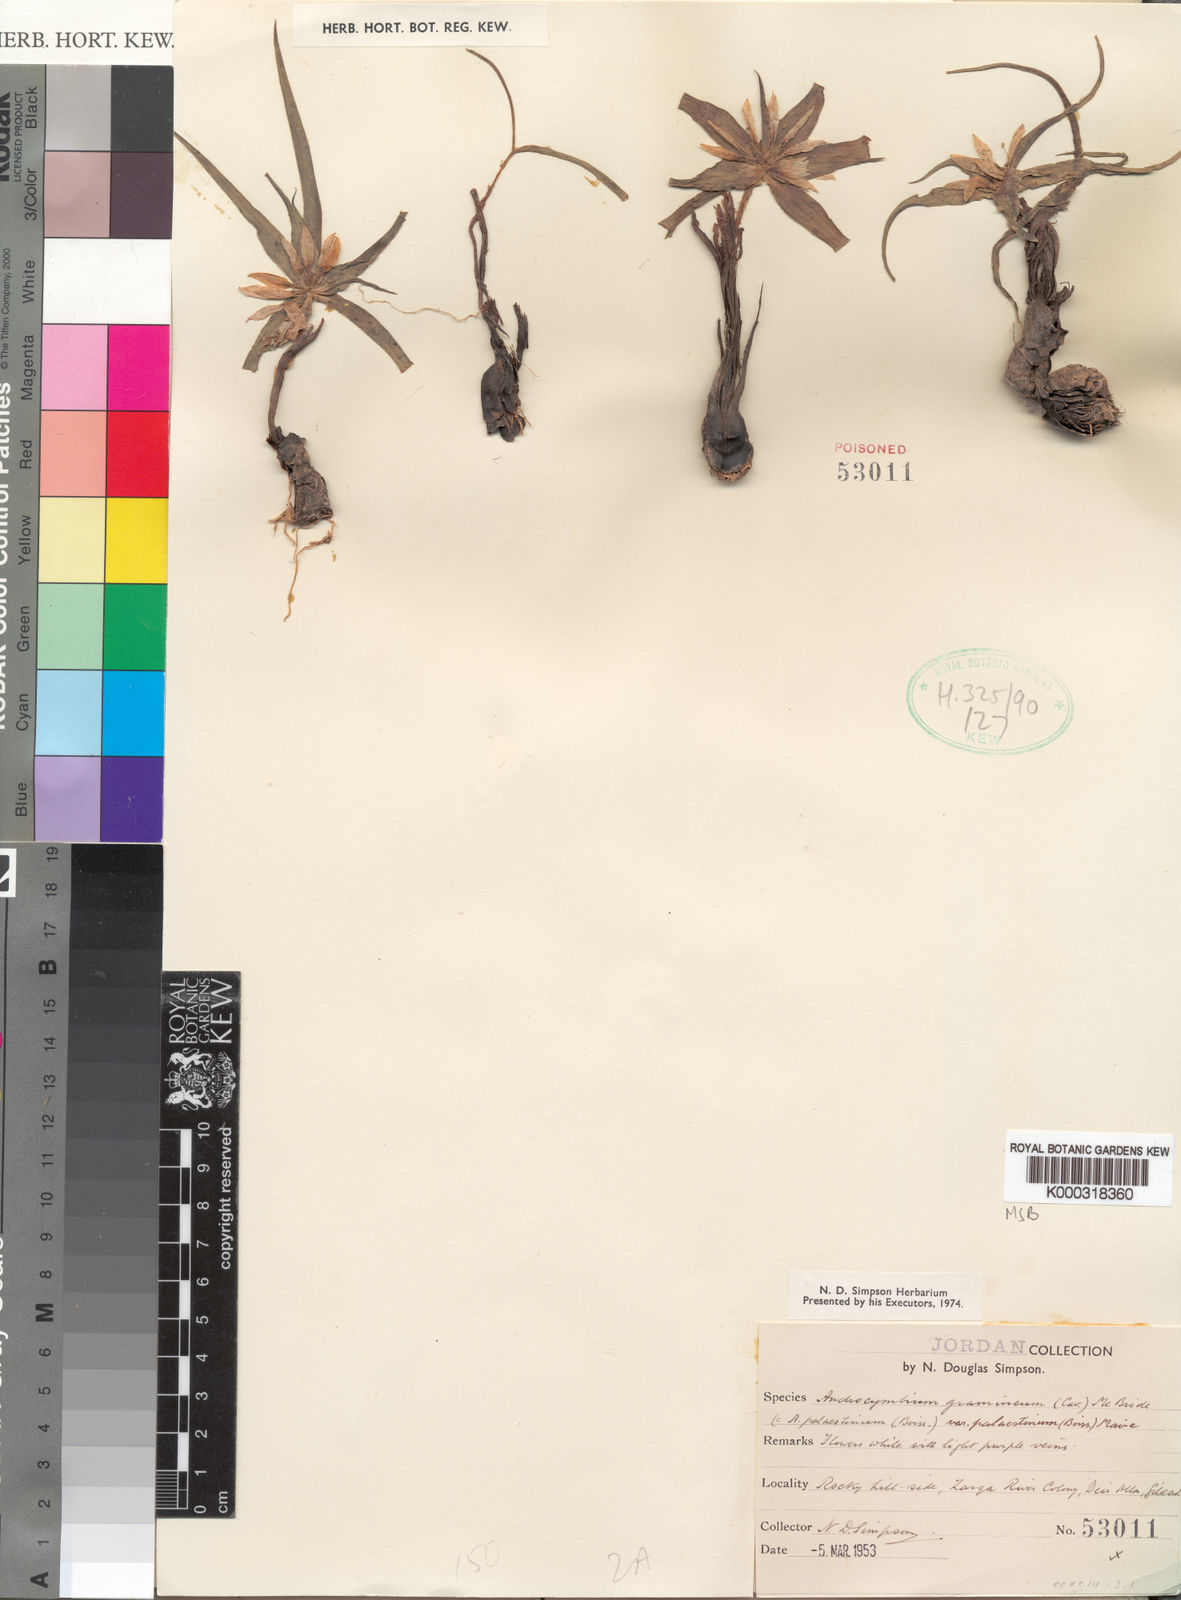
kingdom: Plantae
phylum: Tracheophyta
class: Liliopsida
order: Liliales
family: Colchicaceae
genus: Colchicum
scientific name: Colchicum palaestinum
